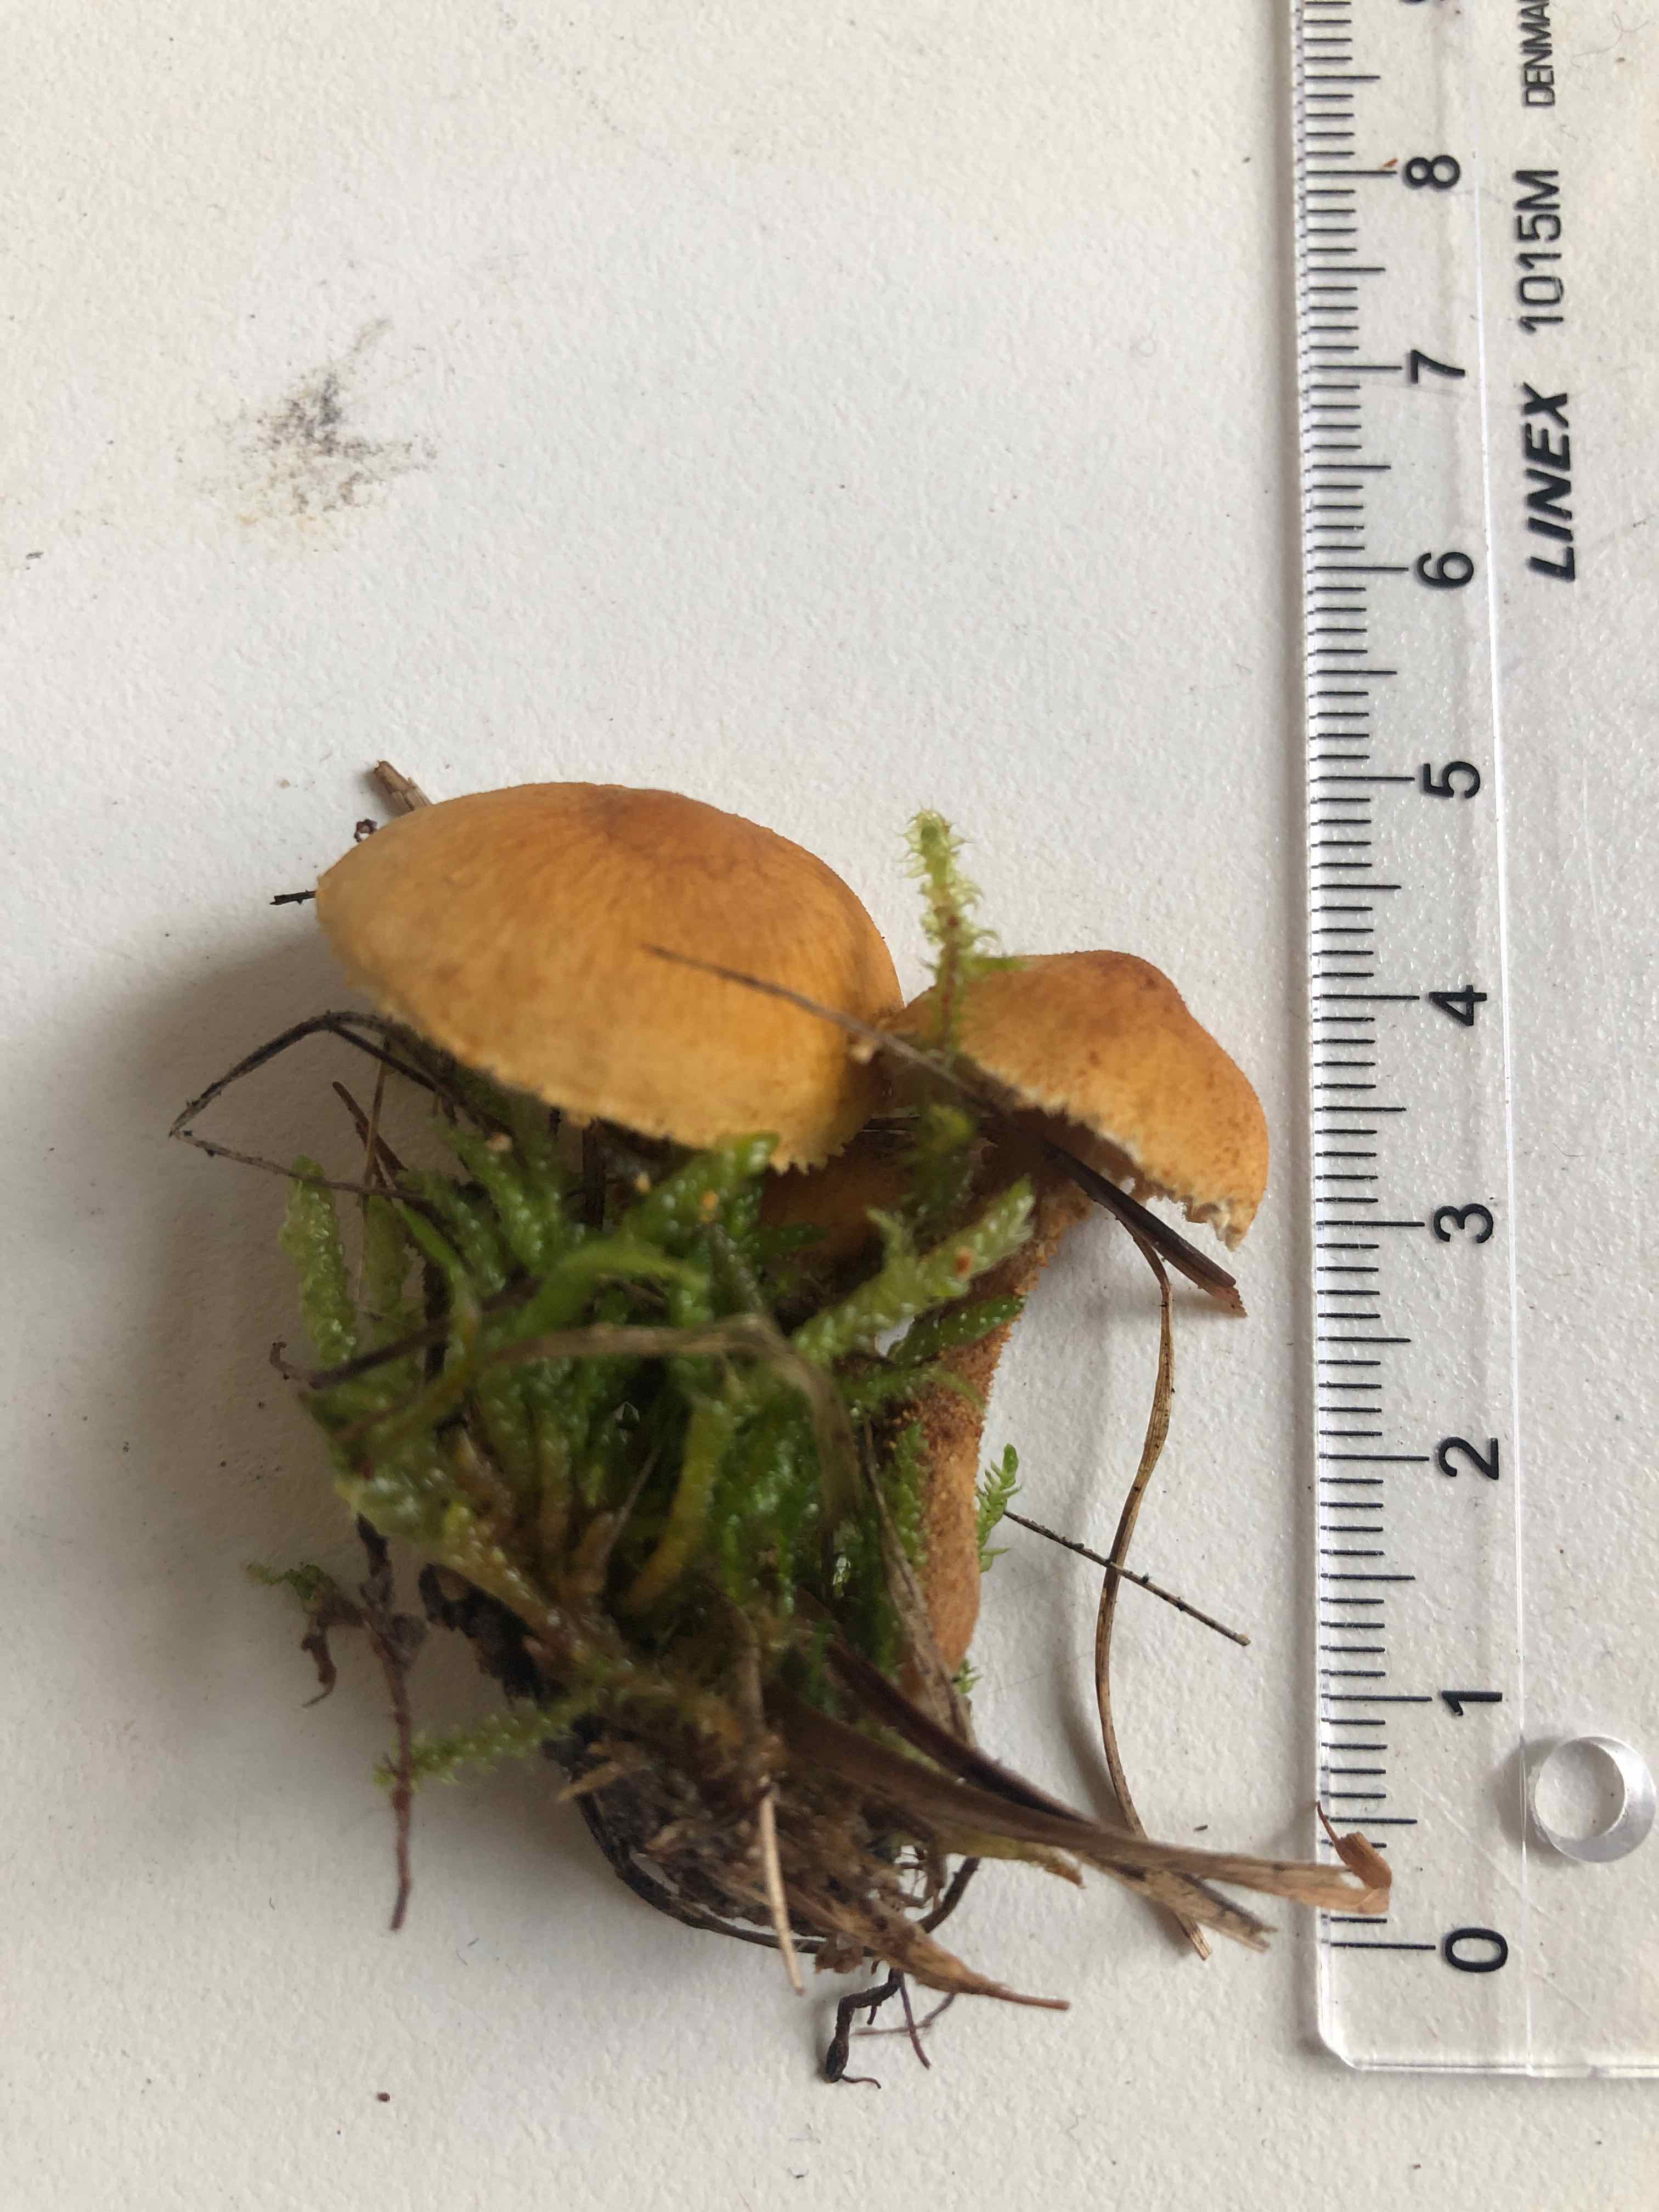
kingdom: Fungi
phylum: Basidiomycota
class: Agaricomycetes
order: Agaricales
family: Tricholomataceae
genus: Cystoderma
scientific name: Cystoderma amianthinum
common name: okkergul grynhat
